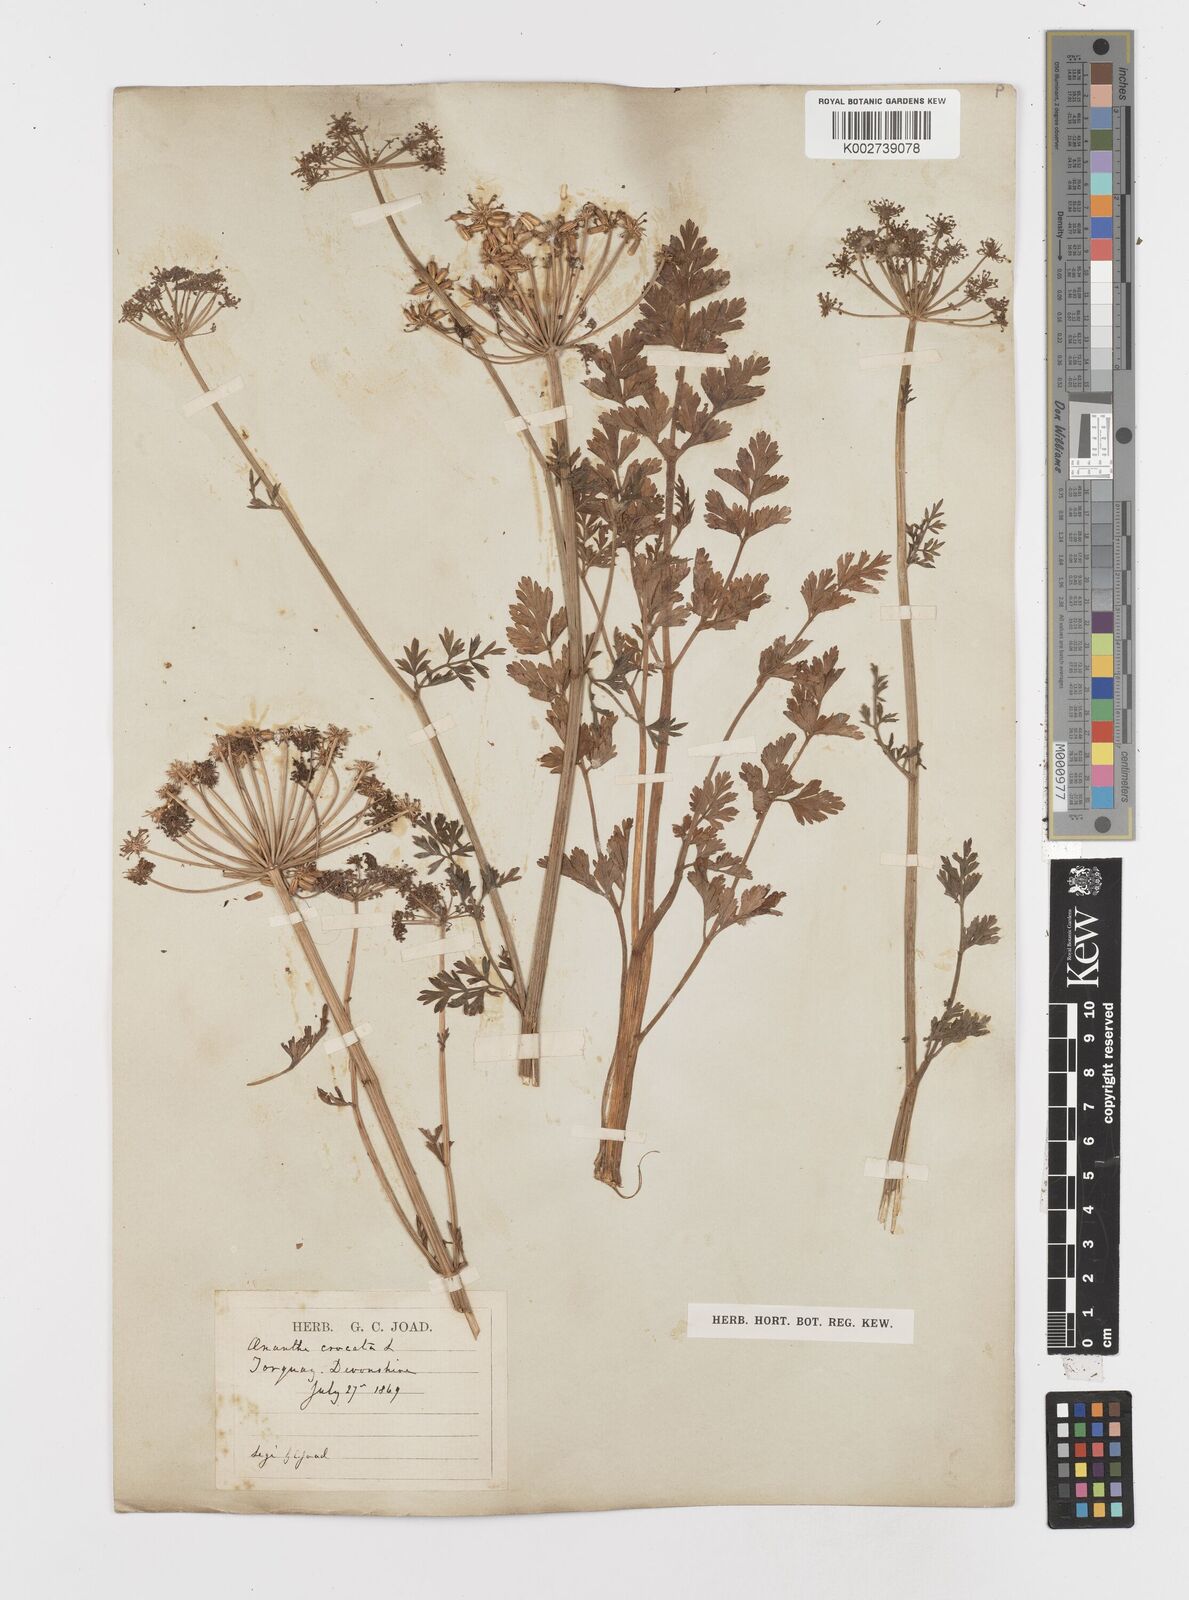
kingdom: Plantae
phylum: Tracheophyta
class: Magnoliopsida
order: Apiales
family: Apiaceae
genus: Oenanthe
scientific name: Oenanthe crocata
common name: Hemlock water-dropwort
